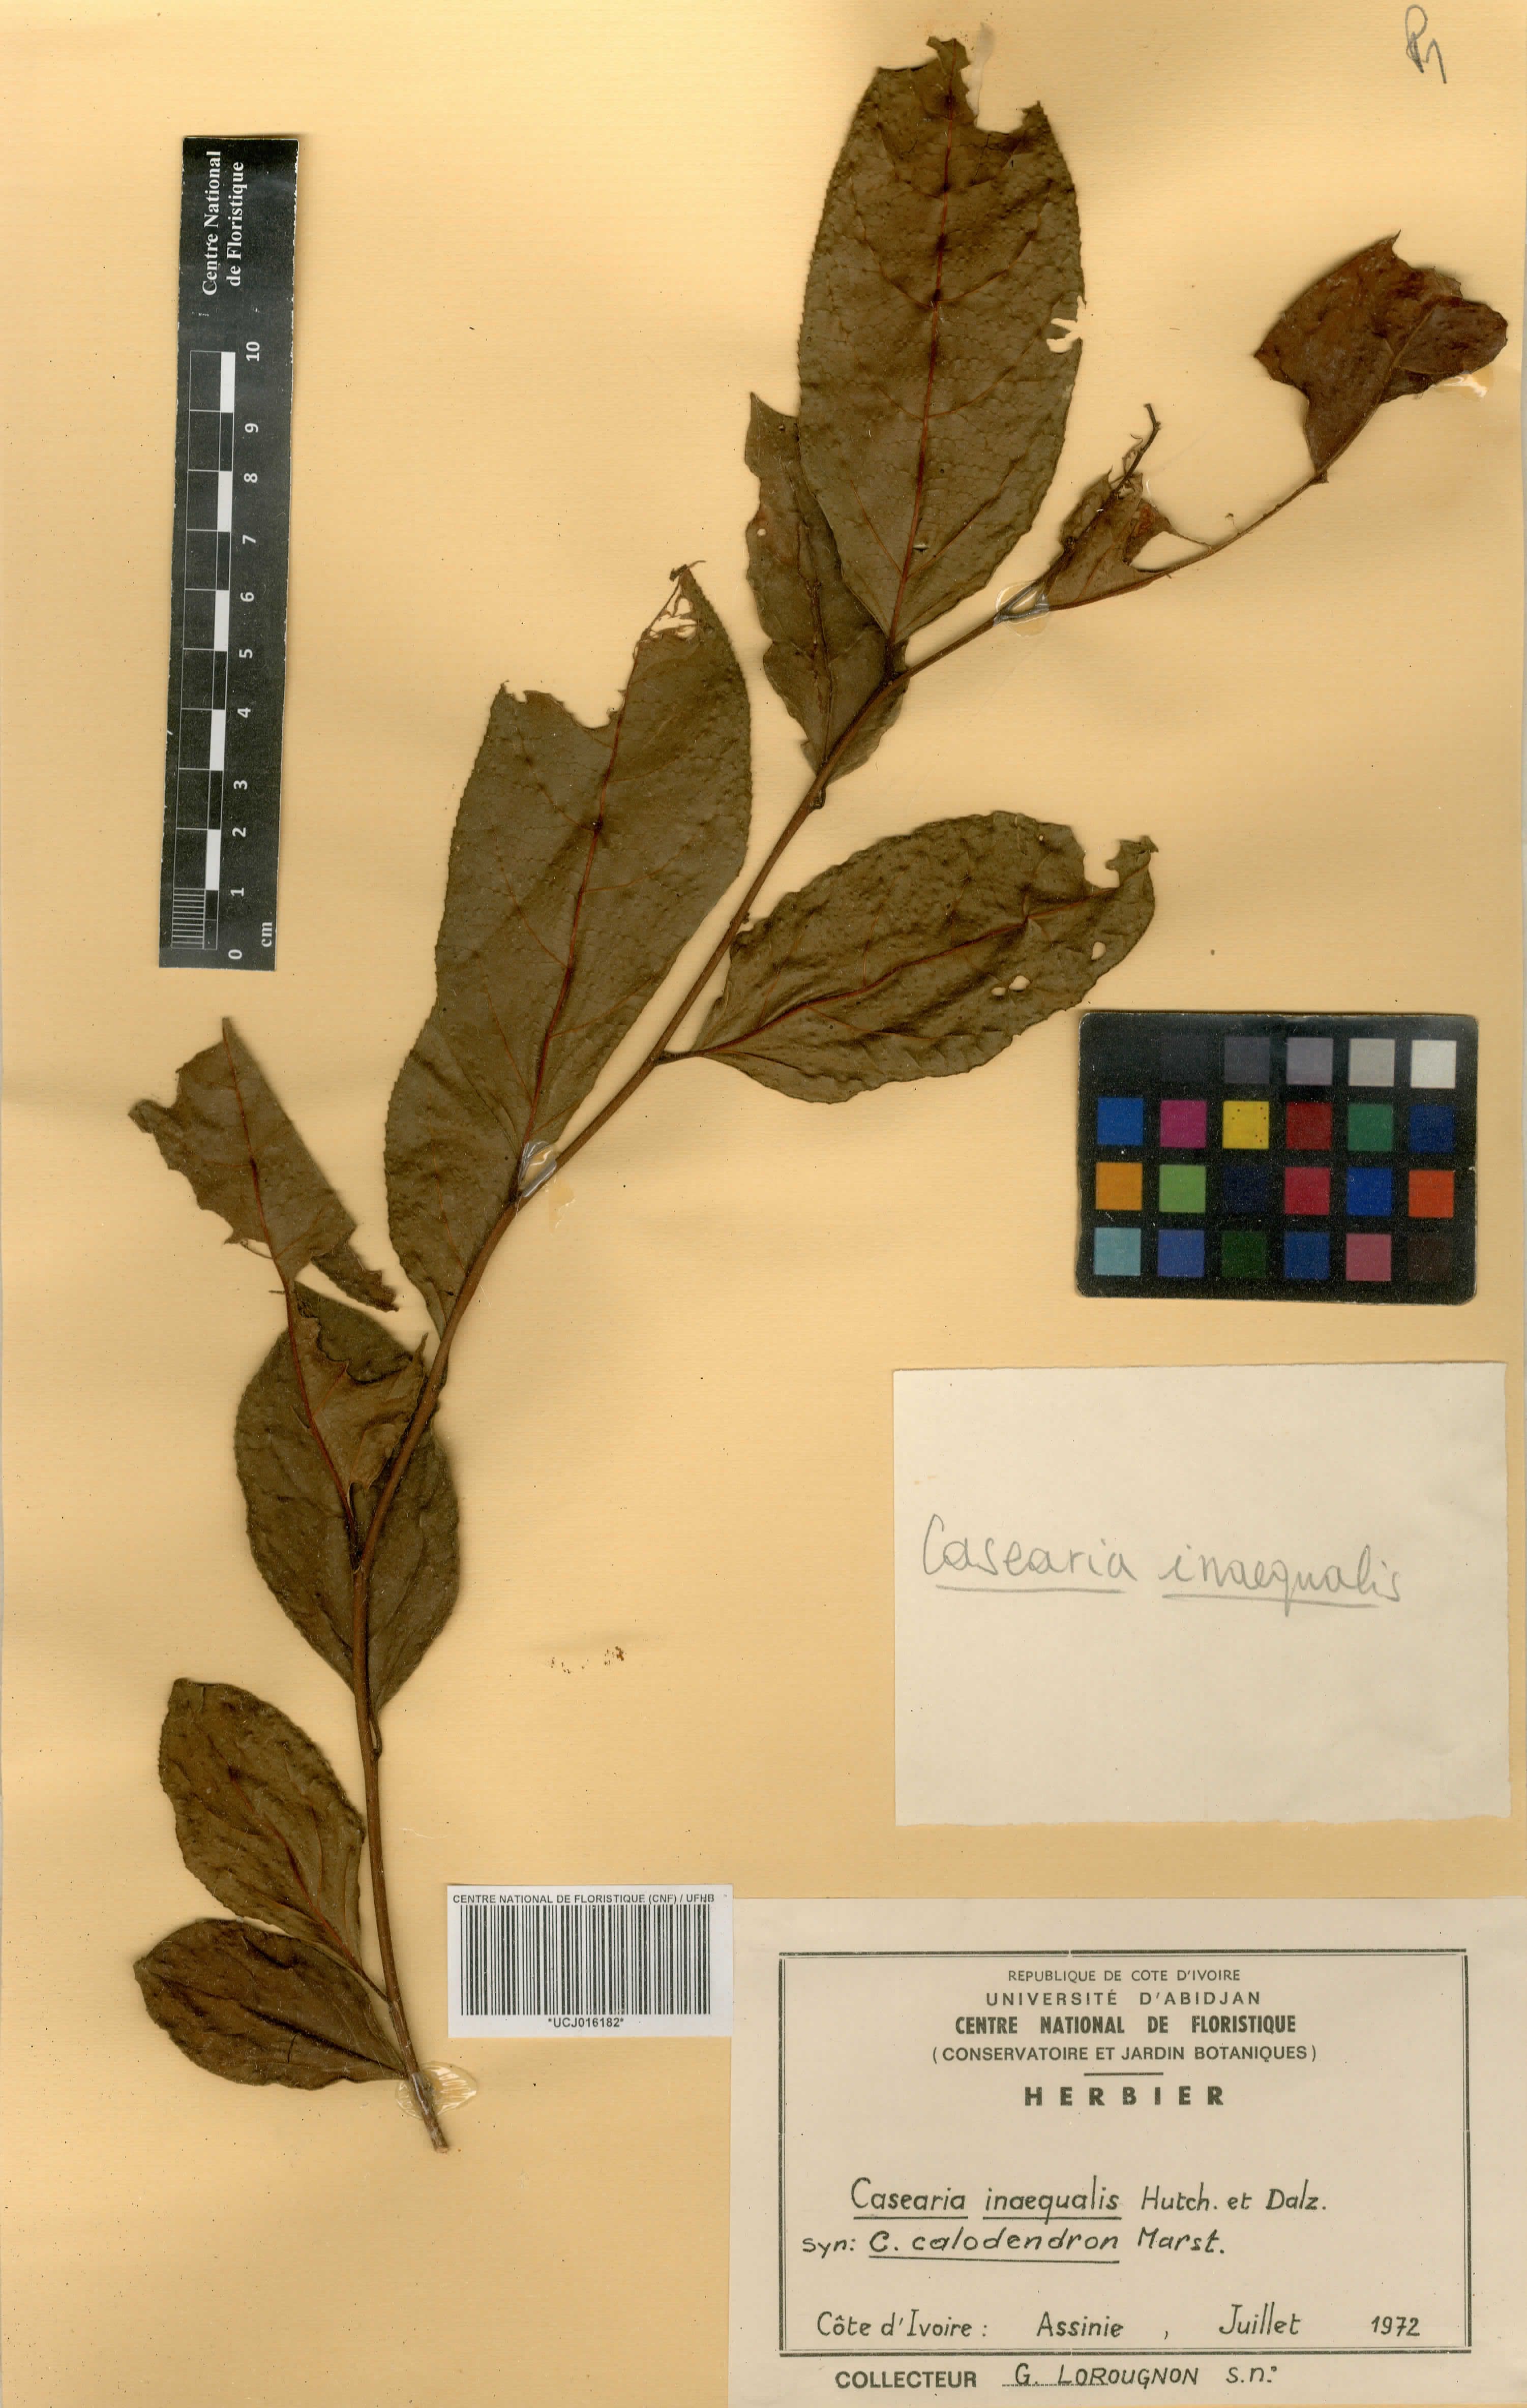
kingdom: Plantae
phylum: Tracheophyta
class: Magnoliopsida
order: Malpighiales
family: Salicaceae
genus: Casearia
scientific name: Casearia calodendron
